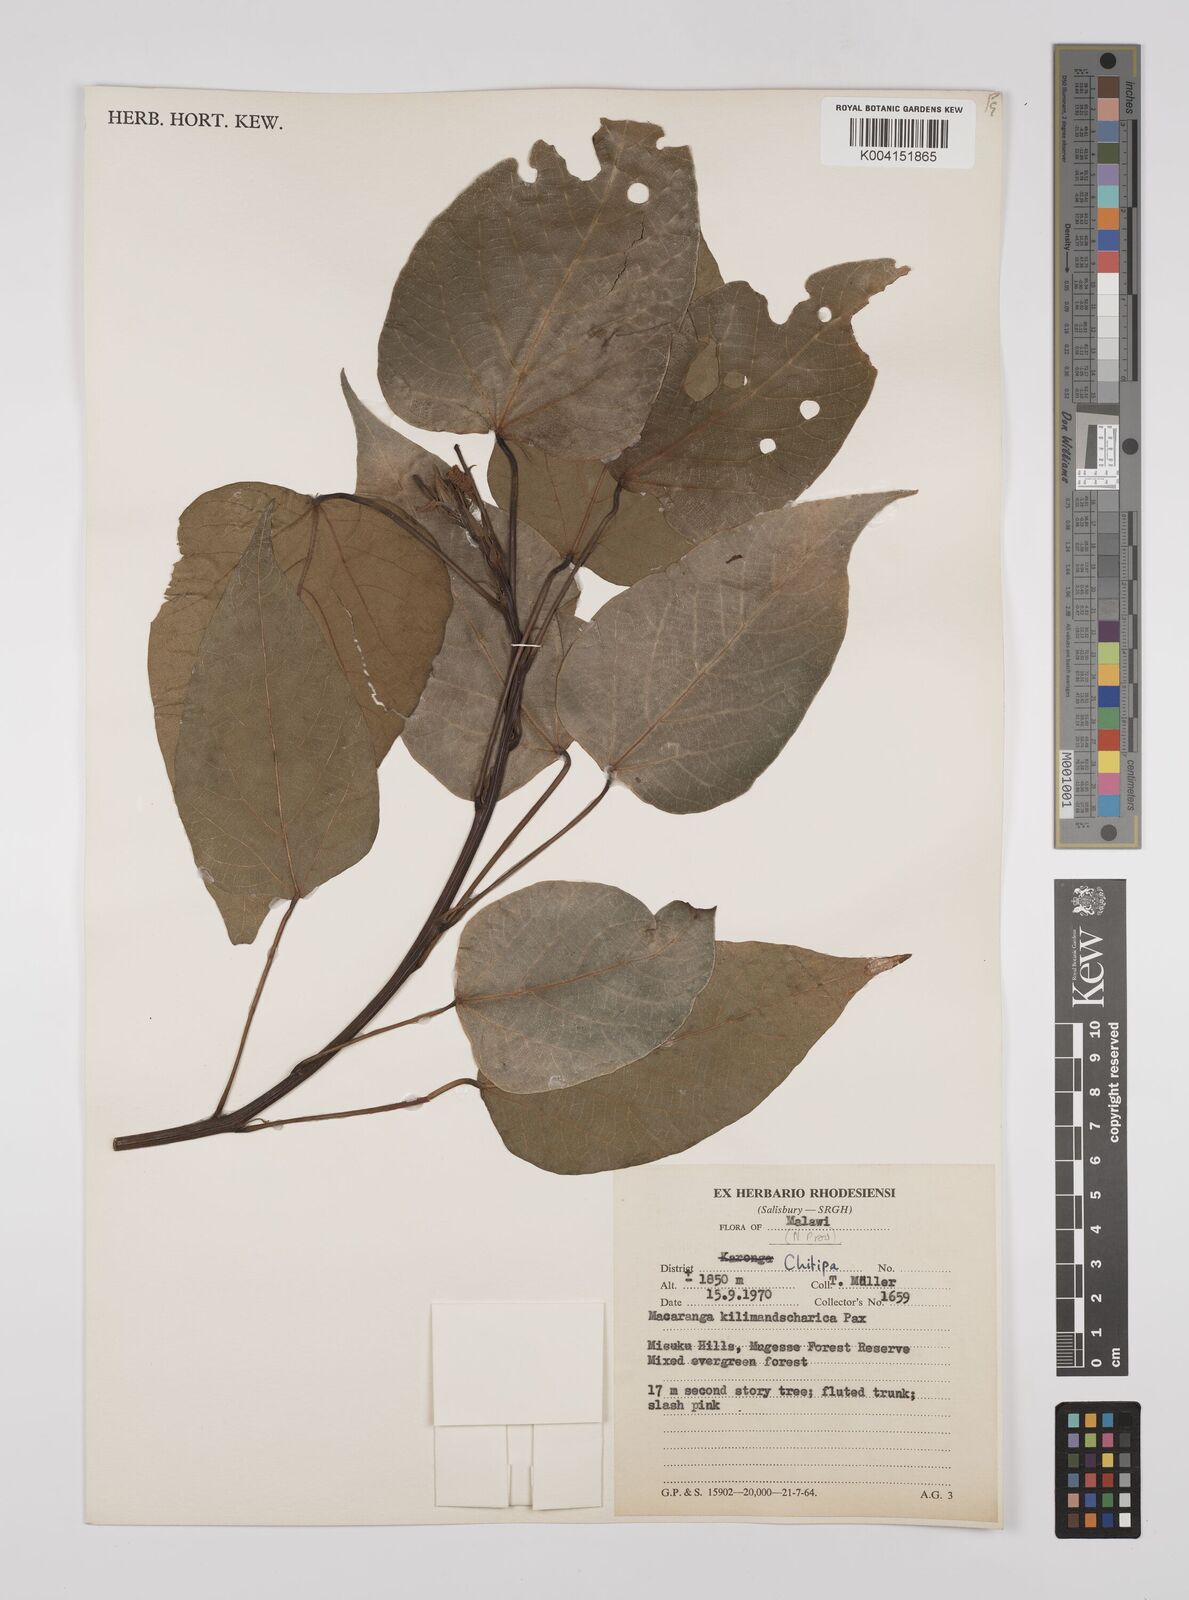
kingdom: Plantae
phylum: Tracheophyta
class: Magnoliopsida
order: Malpighiales
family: Euphorbiaceae
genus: Macaranga
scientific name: Macaranga kilimandscharica
